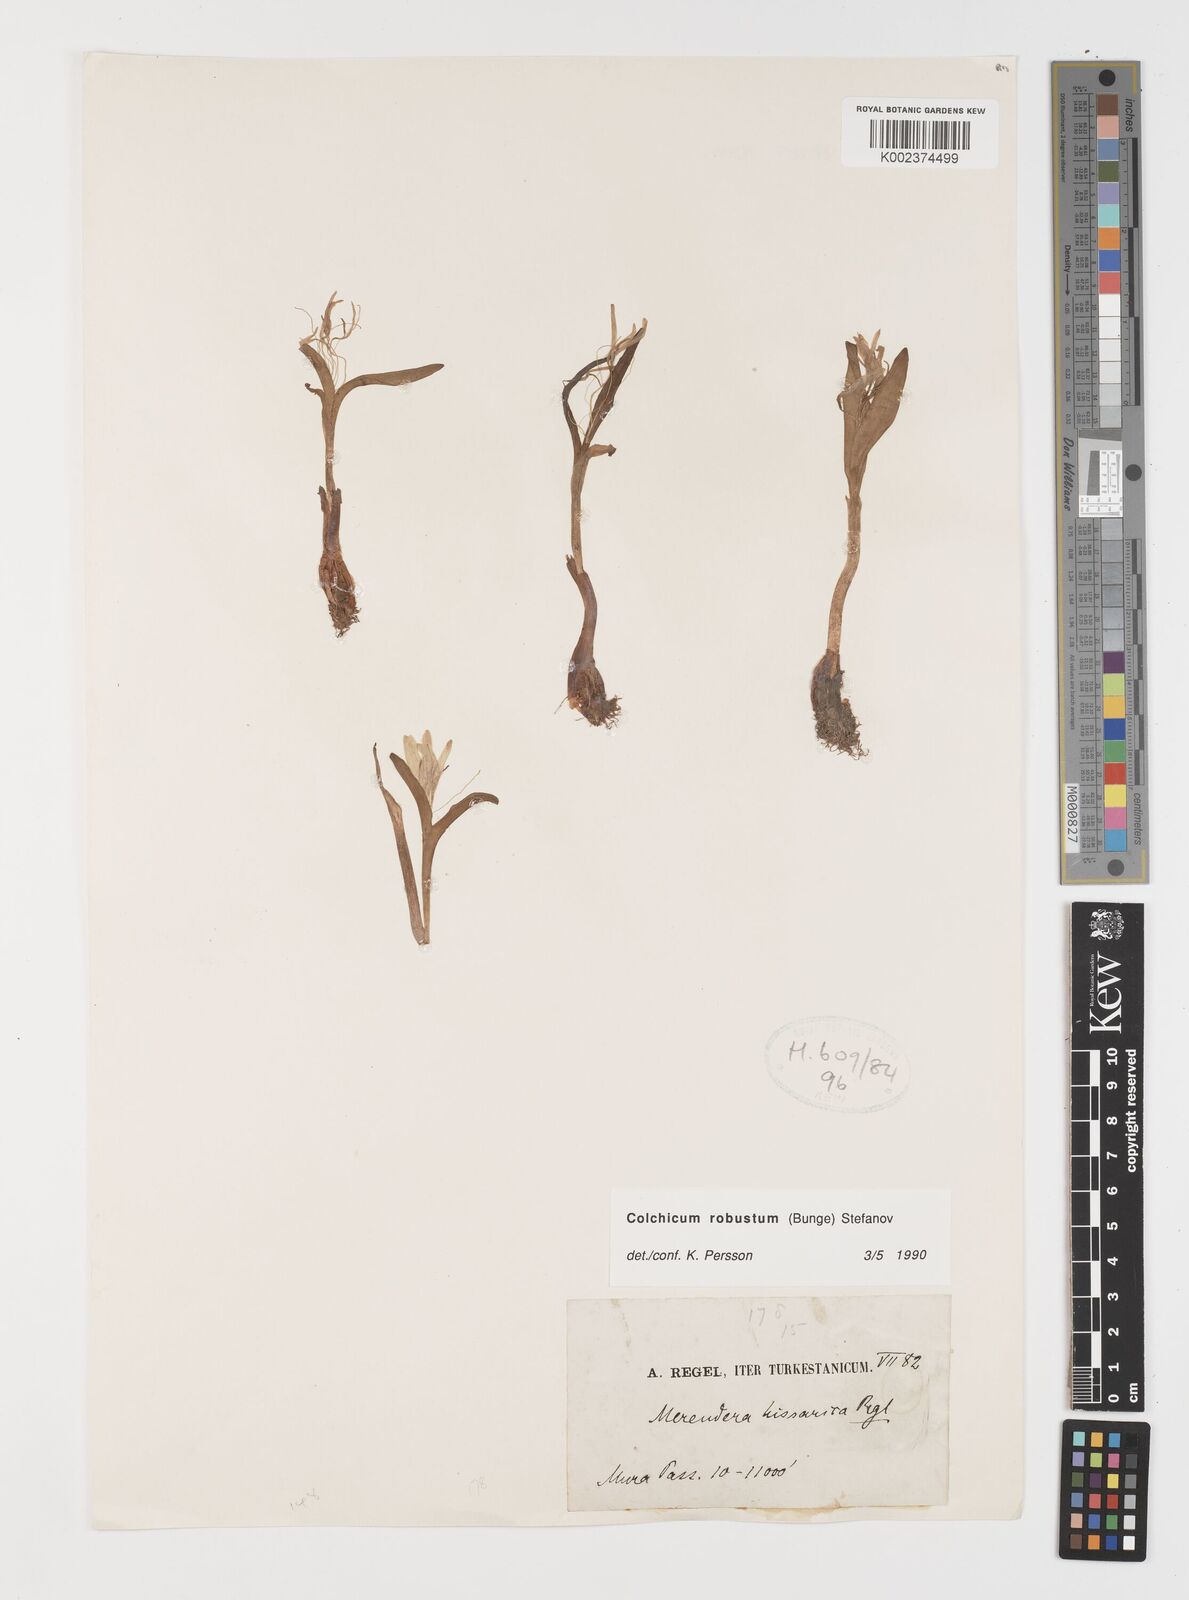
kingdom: Plantae
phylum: Tracheophyta
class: Liliopsida
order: Liliales
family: Colchicaceae
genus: Colchicum
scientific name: Colchicum robustum
